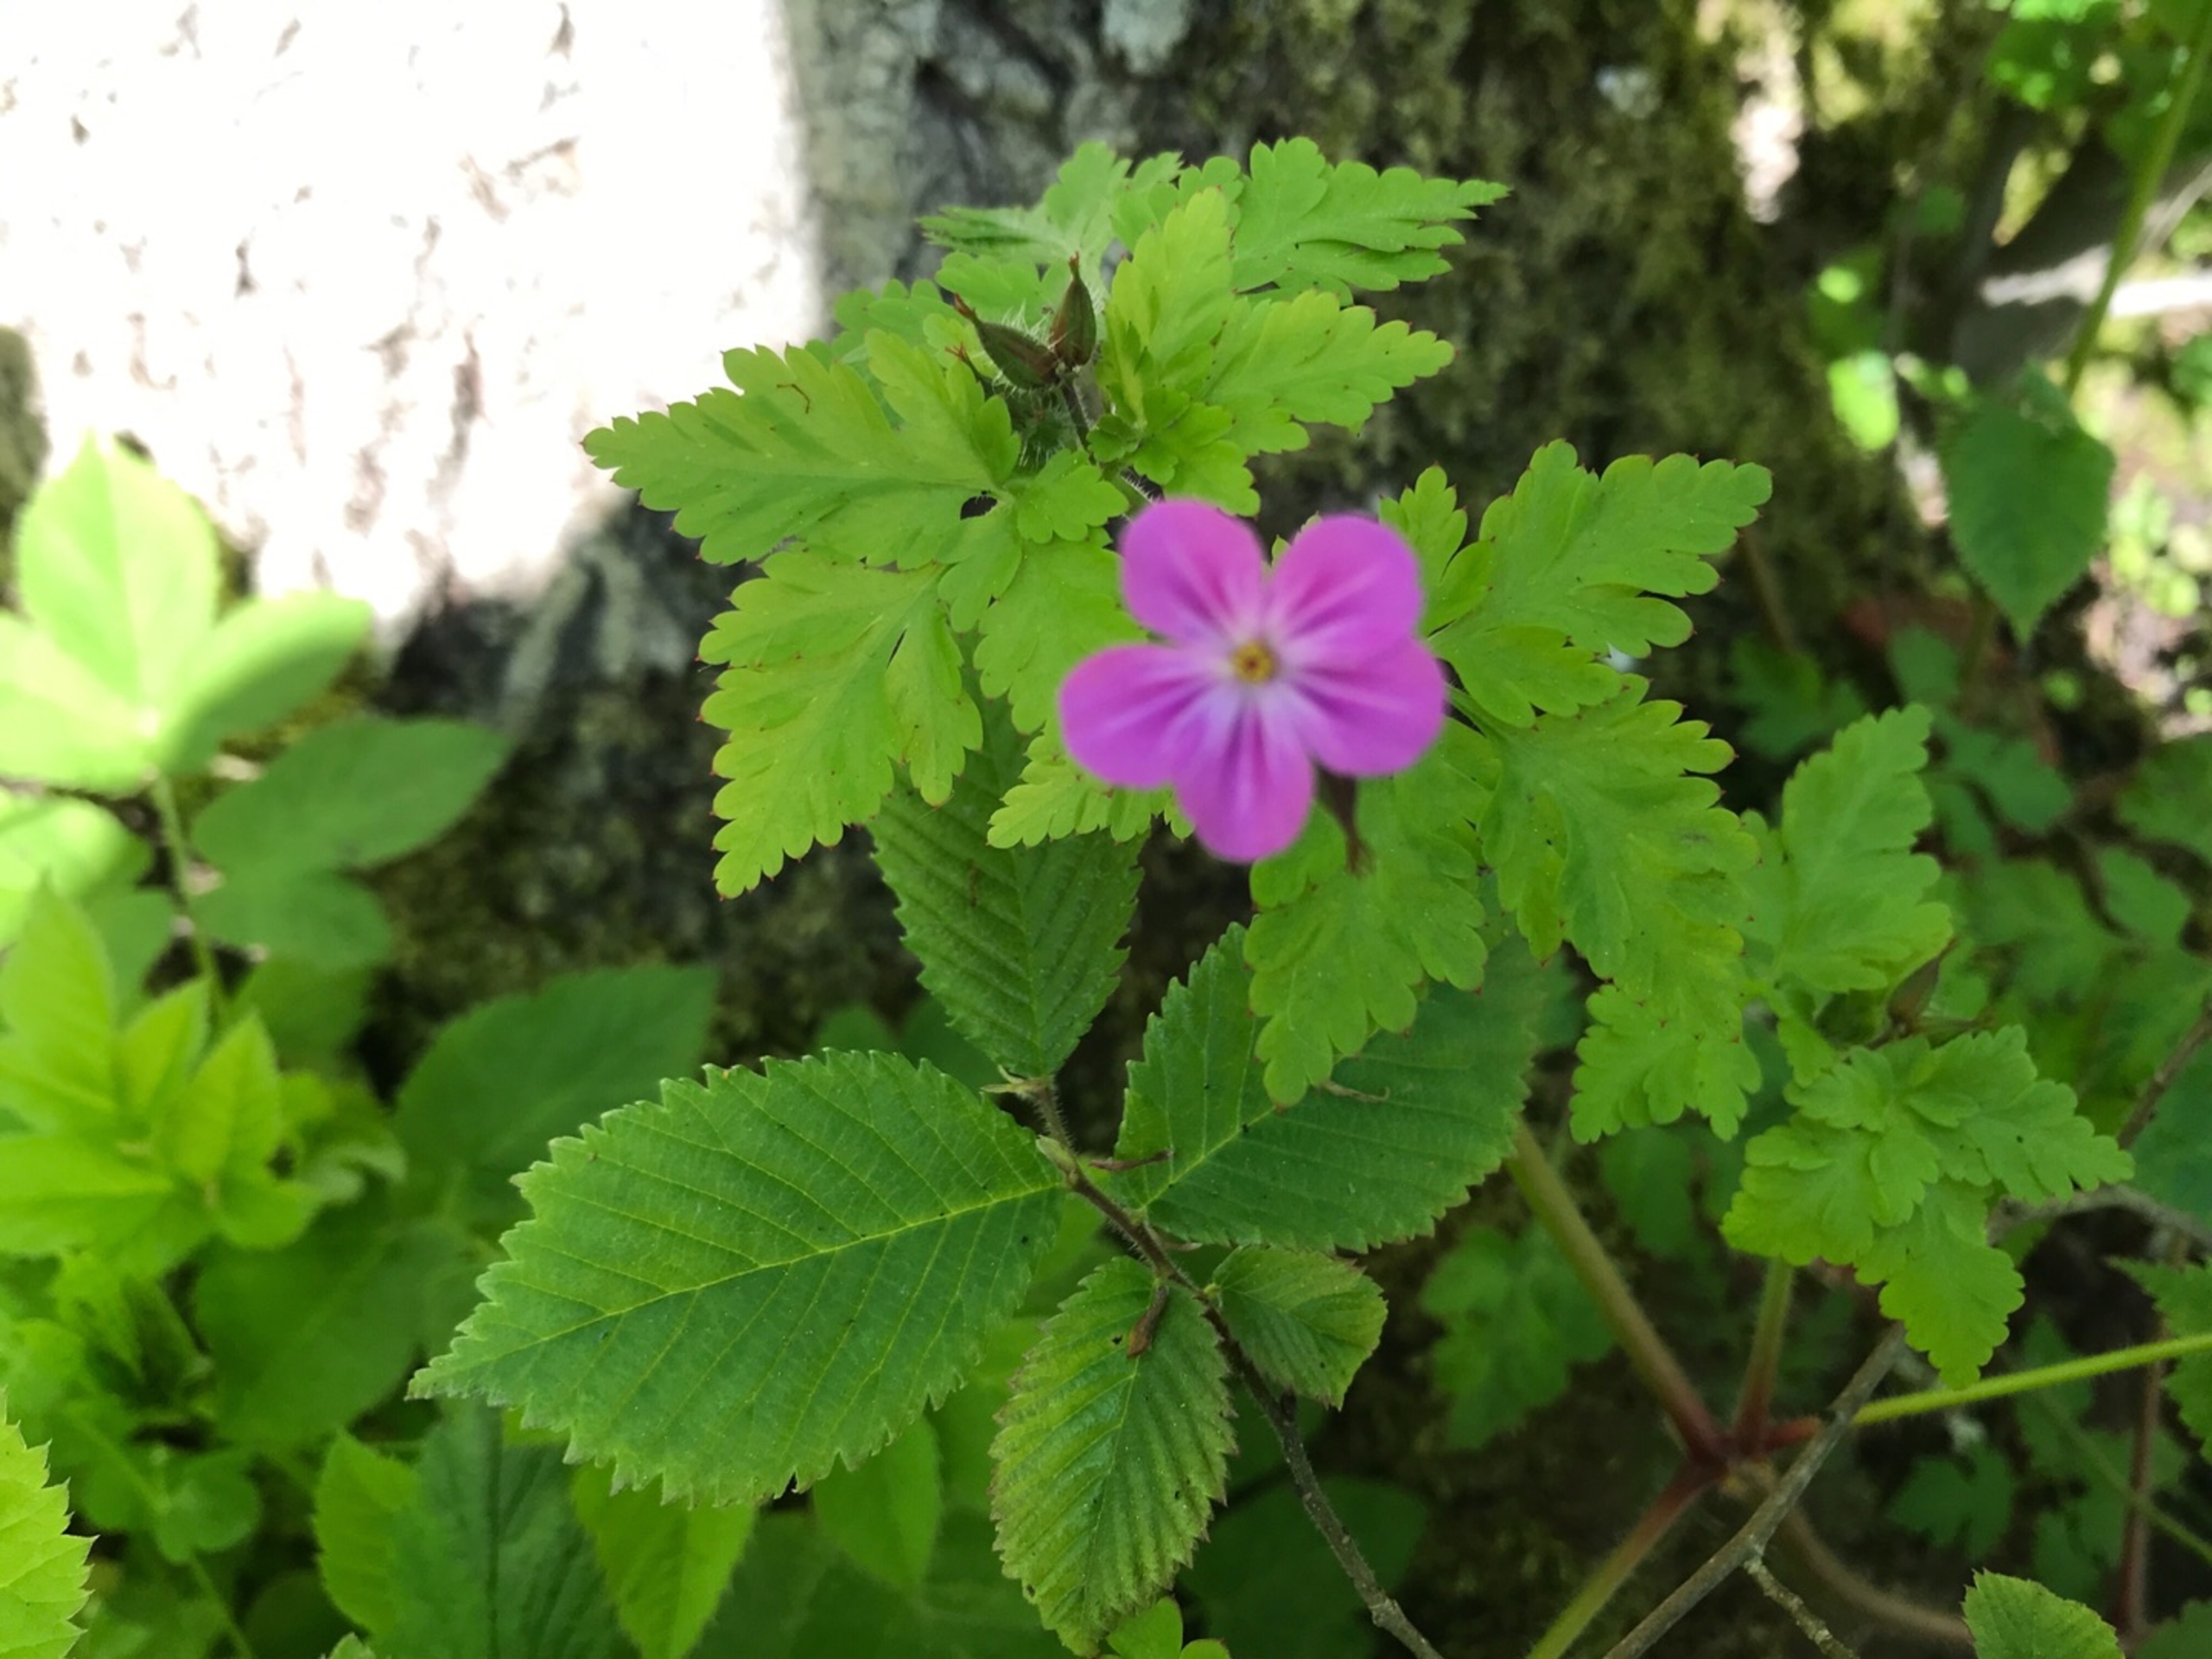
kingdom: Plantae
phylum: Tracheophyta
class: Magnoliopsida
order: Geraniales
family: Geraniaceae
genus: Geranium
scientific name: Geranium robertianum
